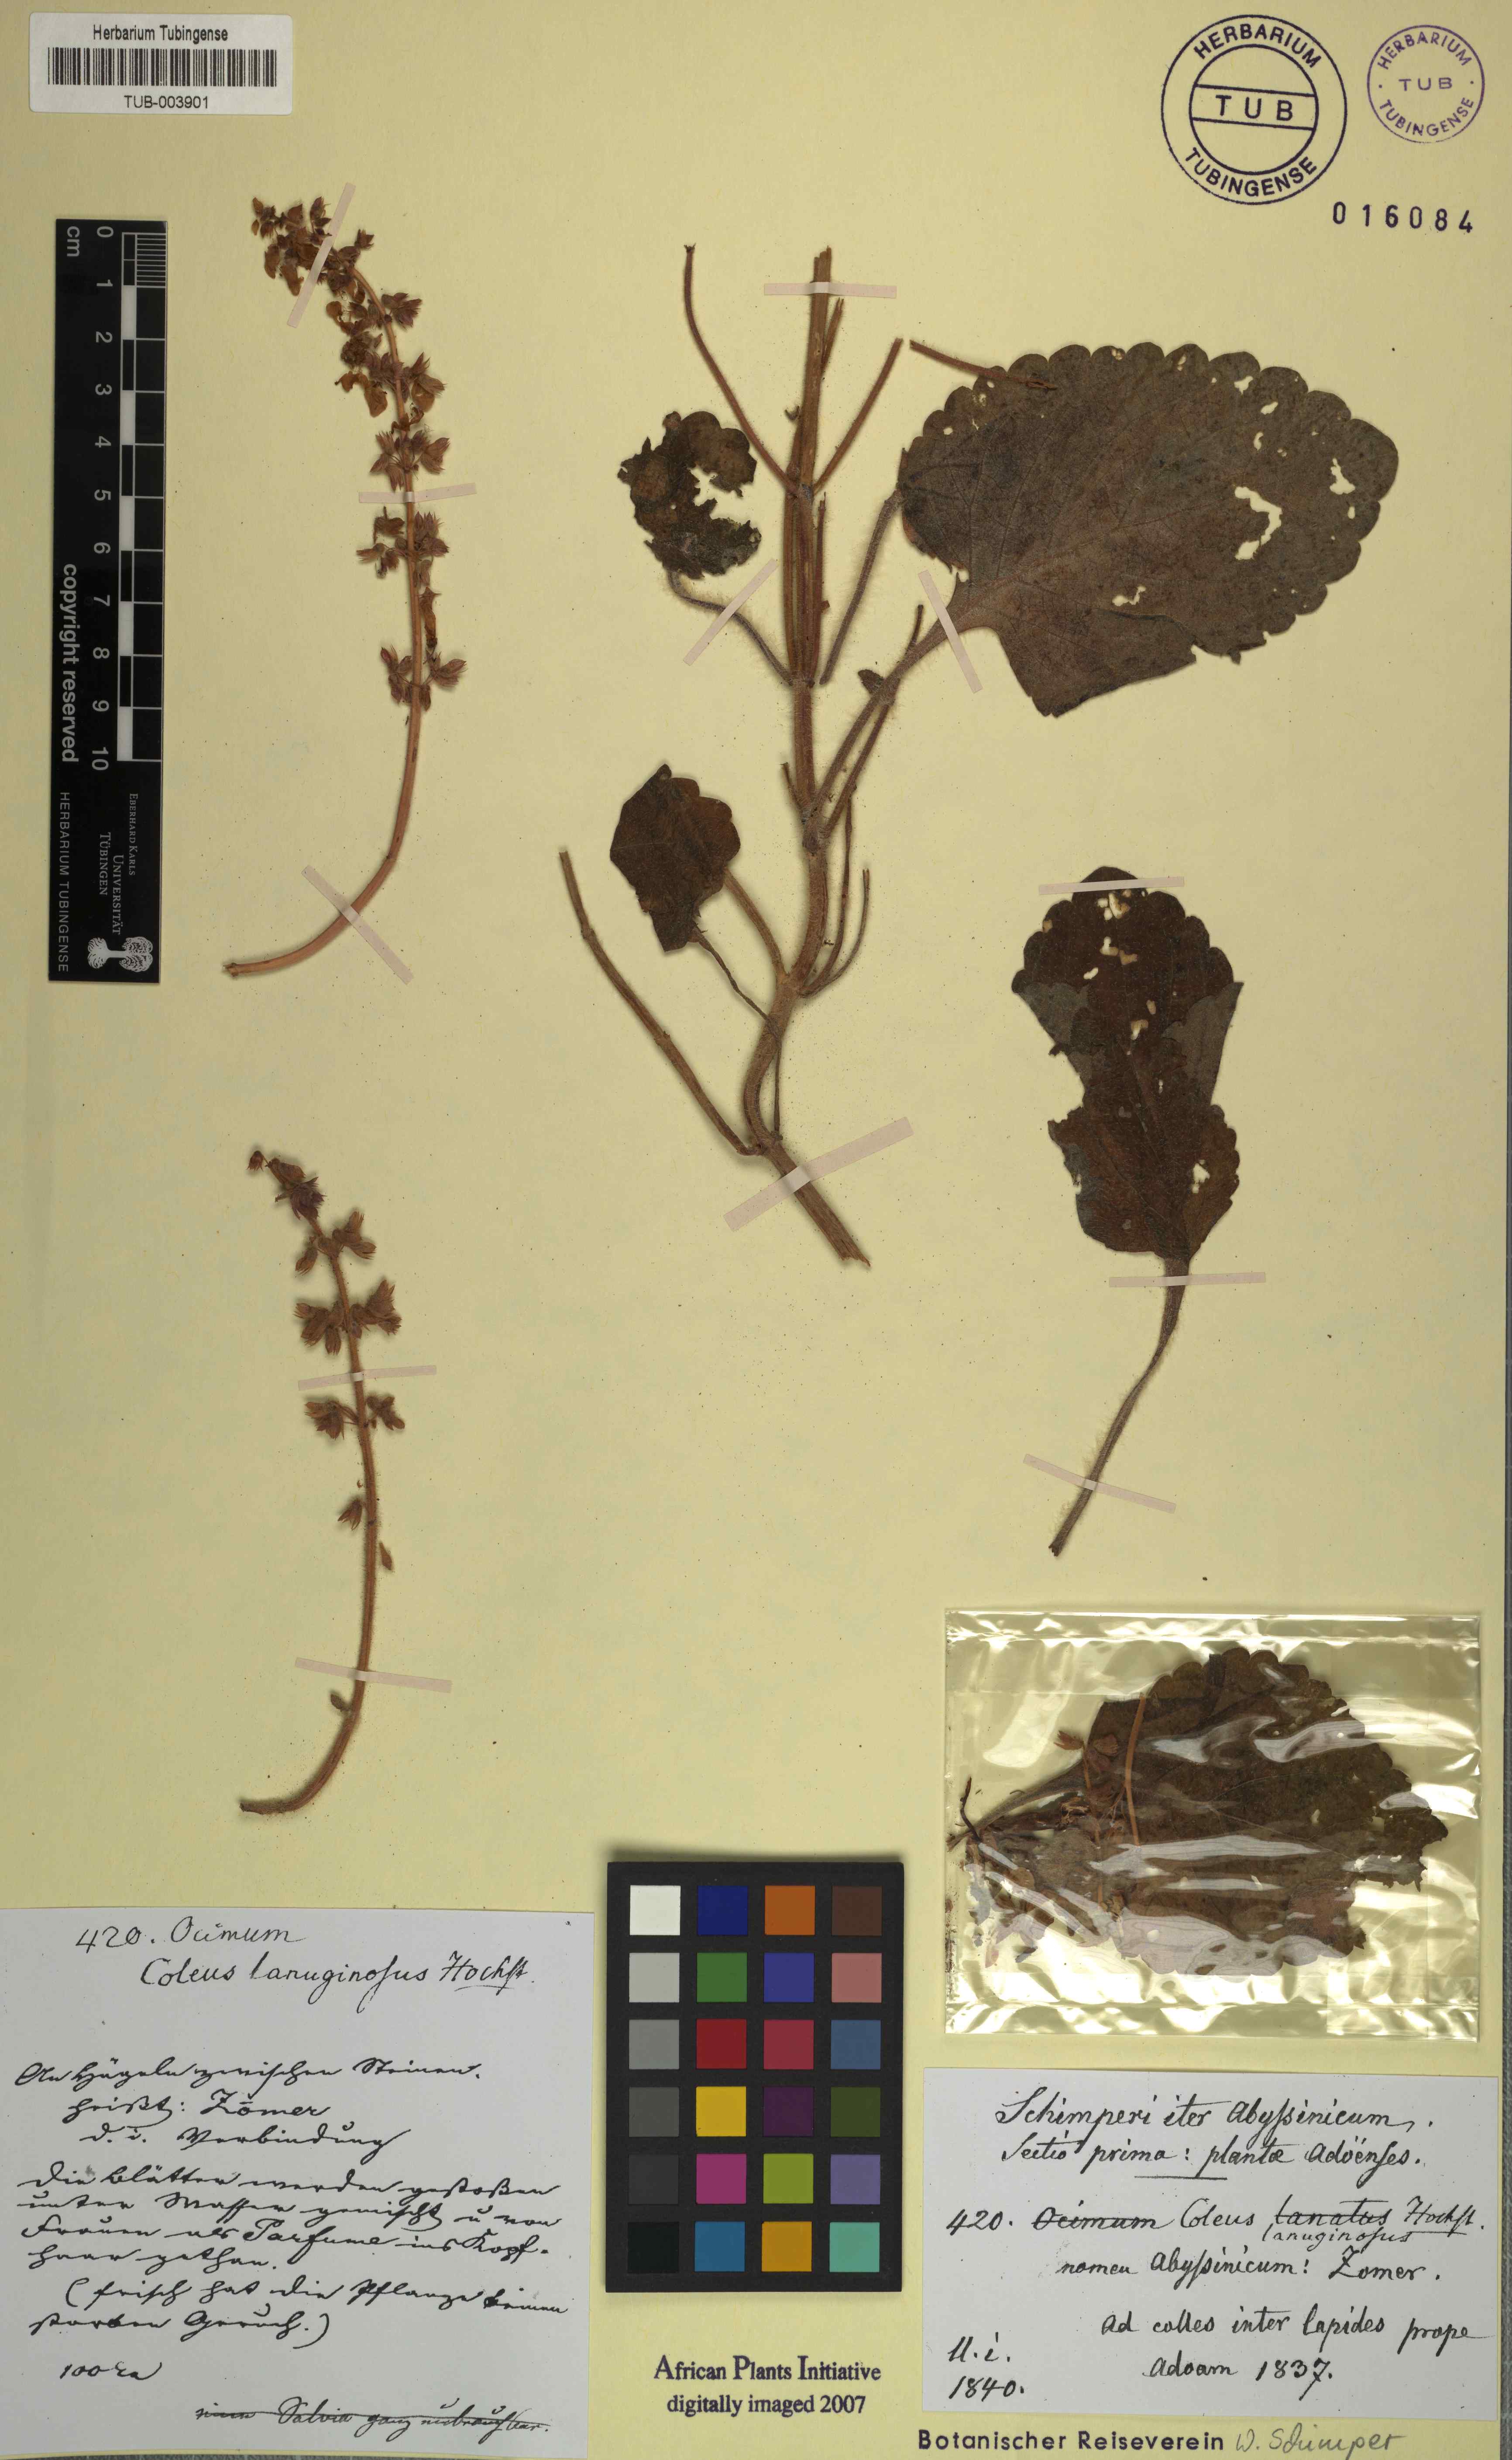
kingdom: Plantae
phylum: Tracheophyta
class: Magnoliopsida
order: Lamiales
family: Lamiaceae
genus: Coleus
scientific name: Coleus lanuginosus
